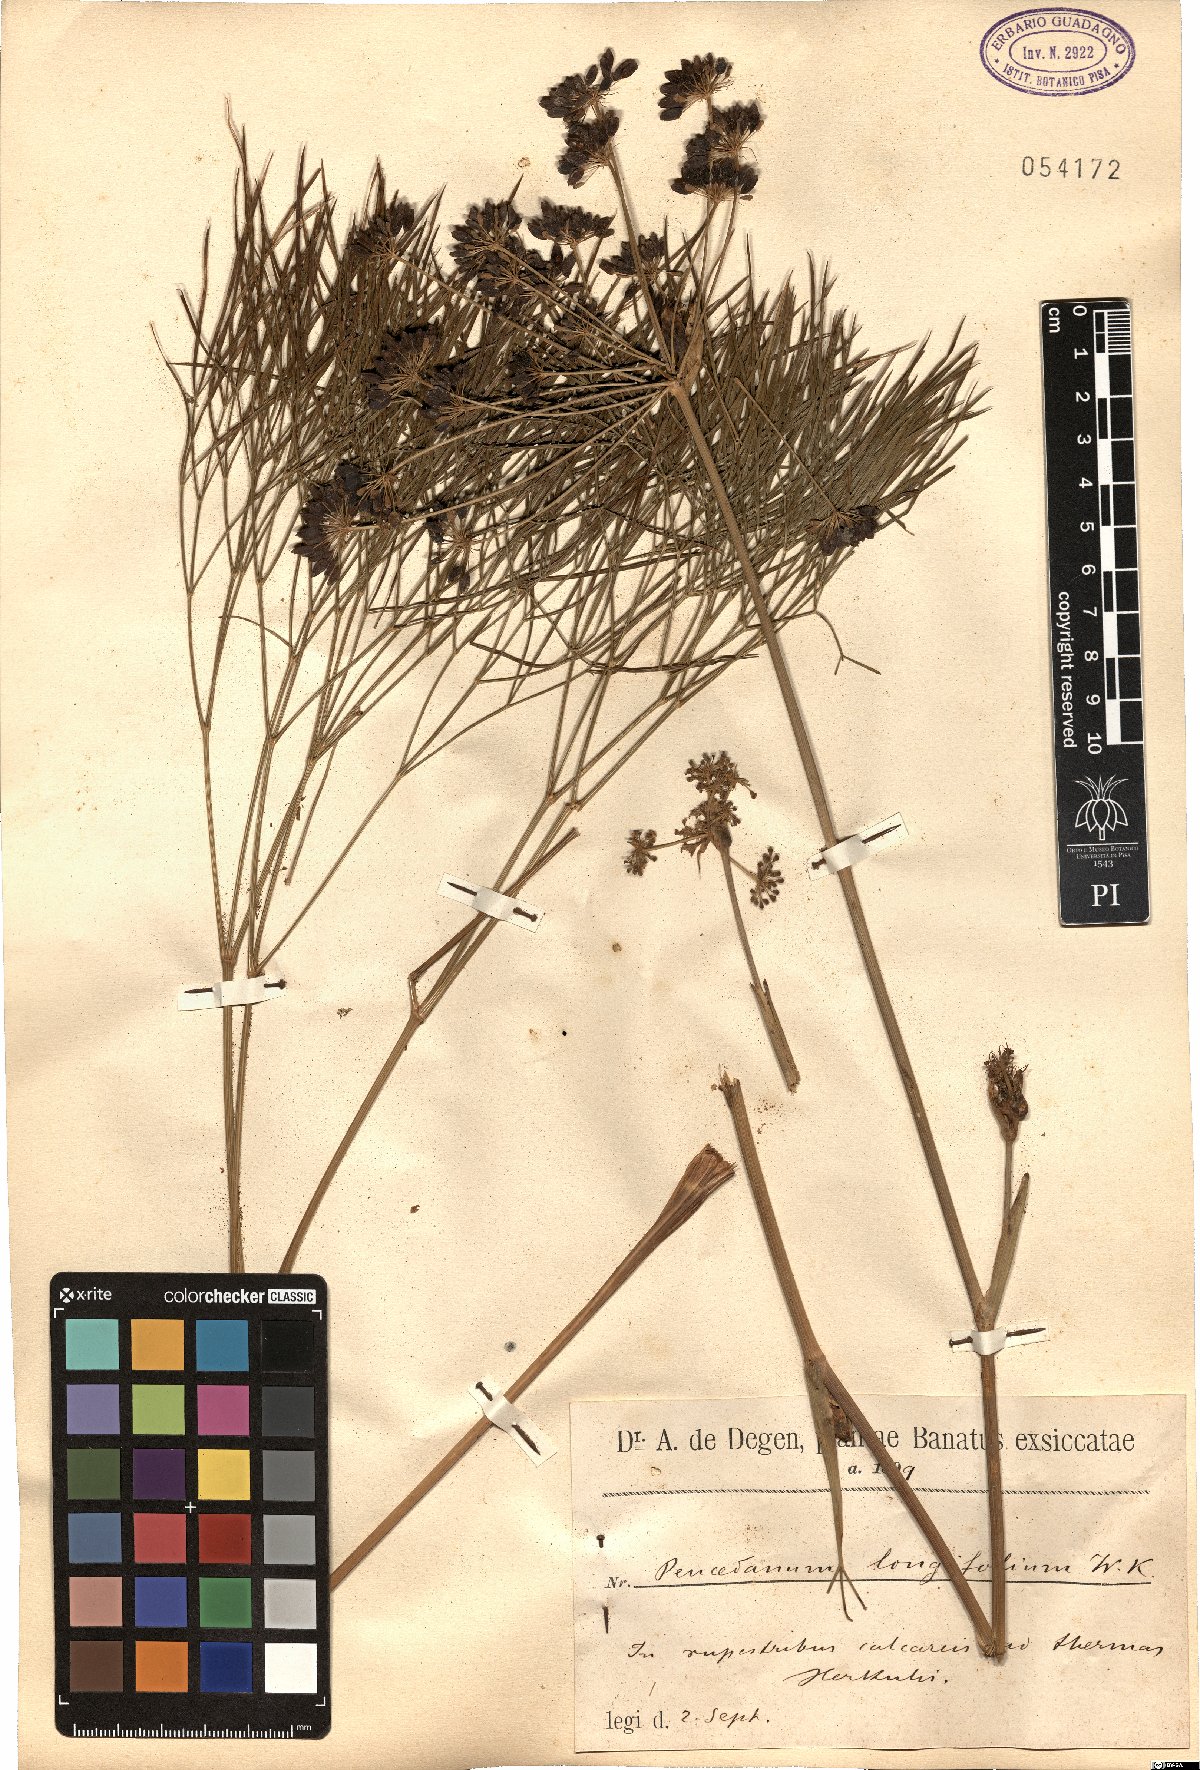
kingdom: Plantae
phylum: Tracheophyta
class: Magnoliopsida
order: Apiales
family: Apiaceae
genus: Peucedanum
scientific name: Peucedanum longifolium
